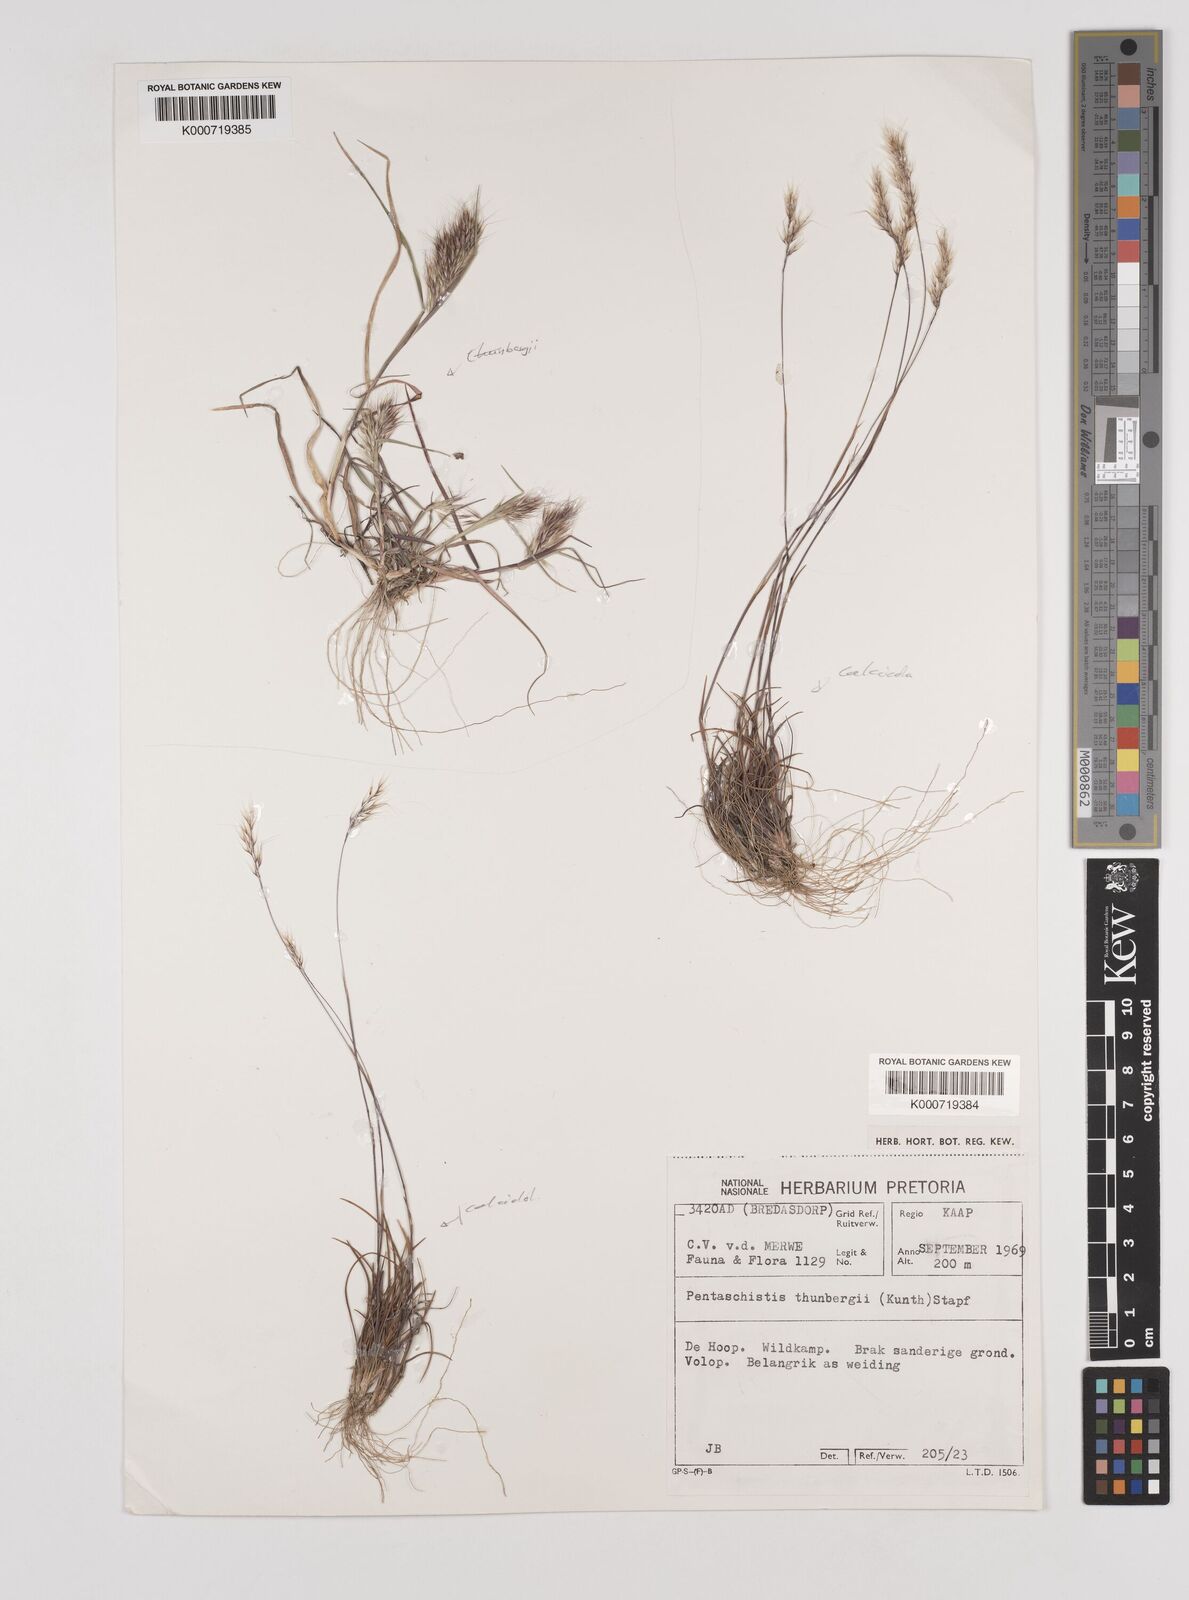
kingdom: Plantae
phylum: Tracheophyta
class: Liliopsida
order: Poales
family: Poaceae
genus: Pentameris
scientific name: Pentameris triseta
